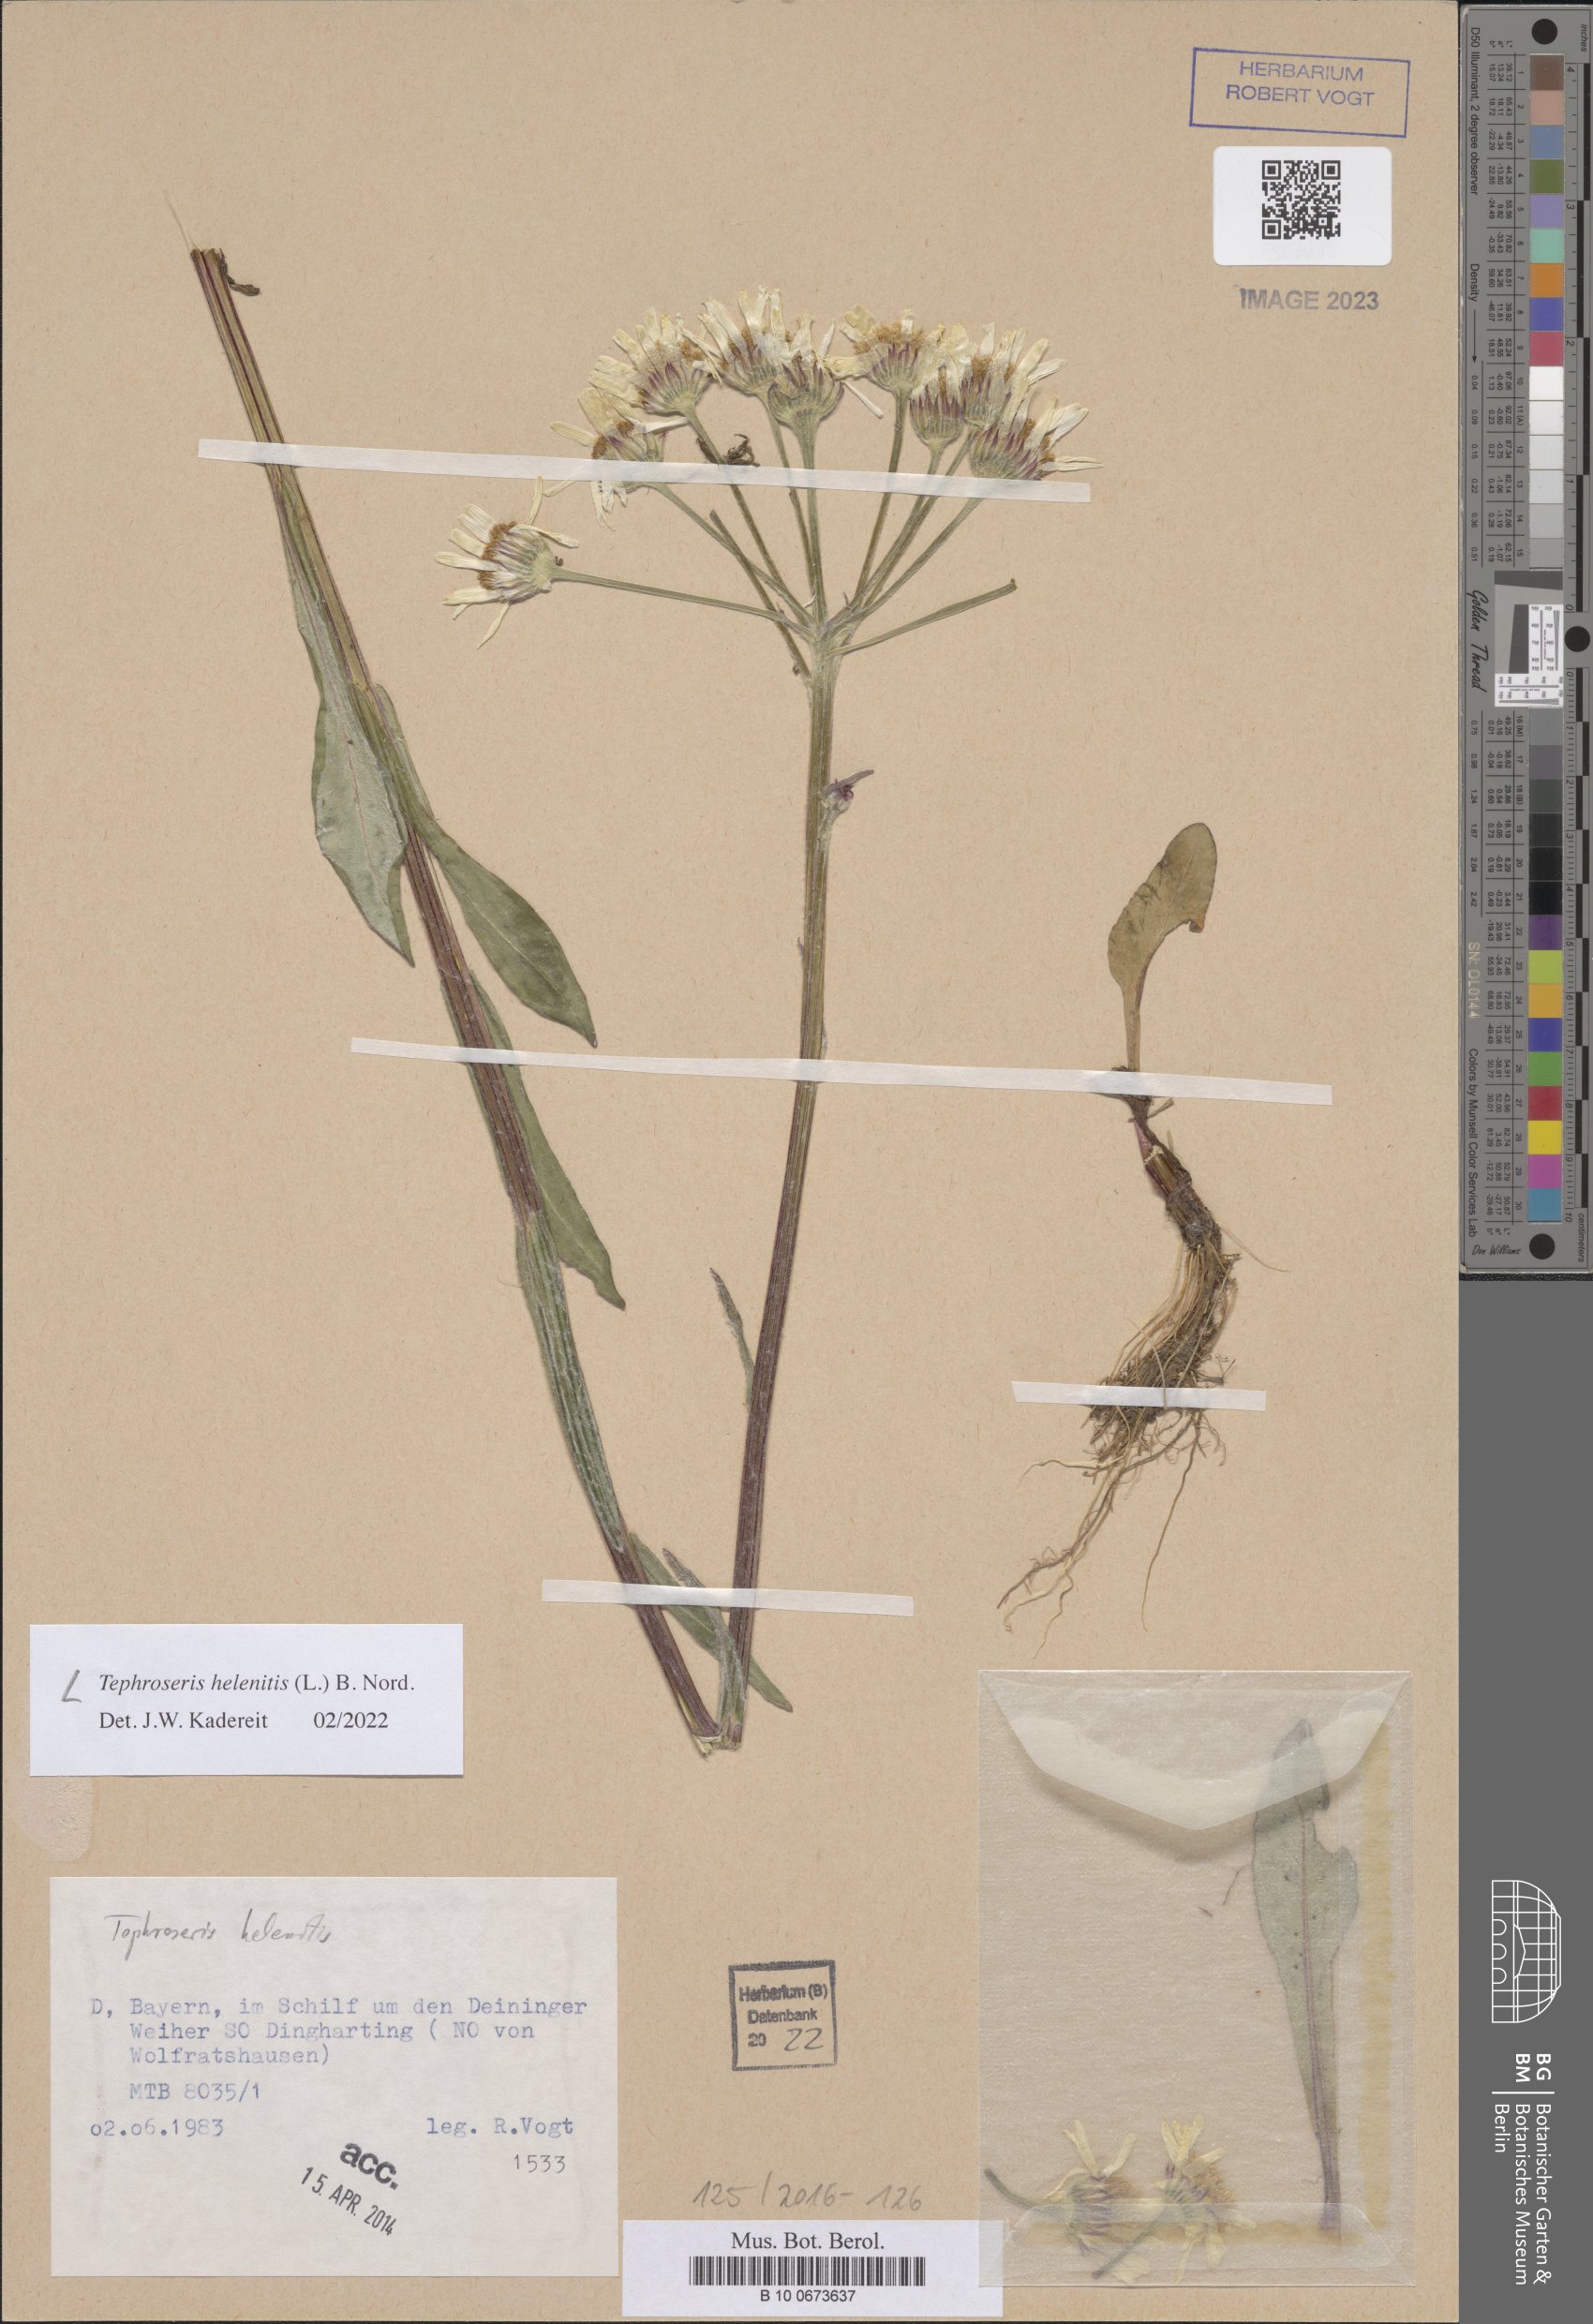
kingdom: Plantae
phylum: Tracheophyta
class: Magnoliopsida
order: Asterales
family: Asteraceae
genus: Tephroseris
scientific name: Tephroseris helenitis
